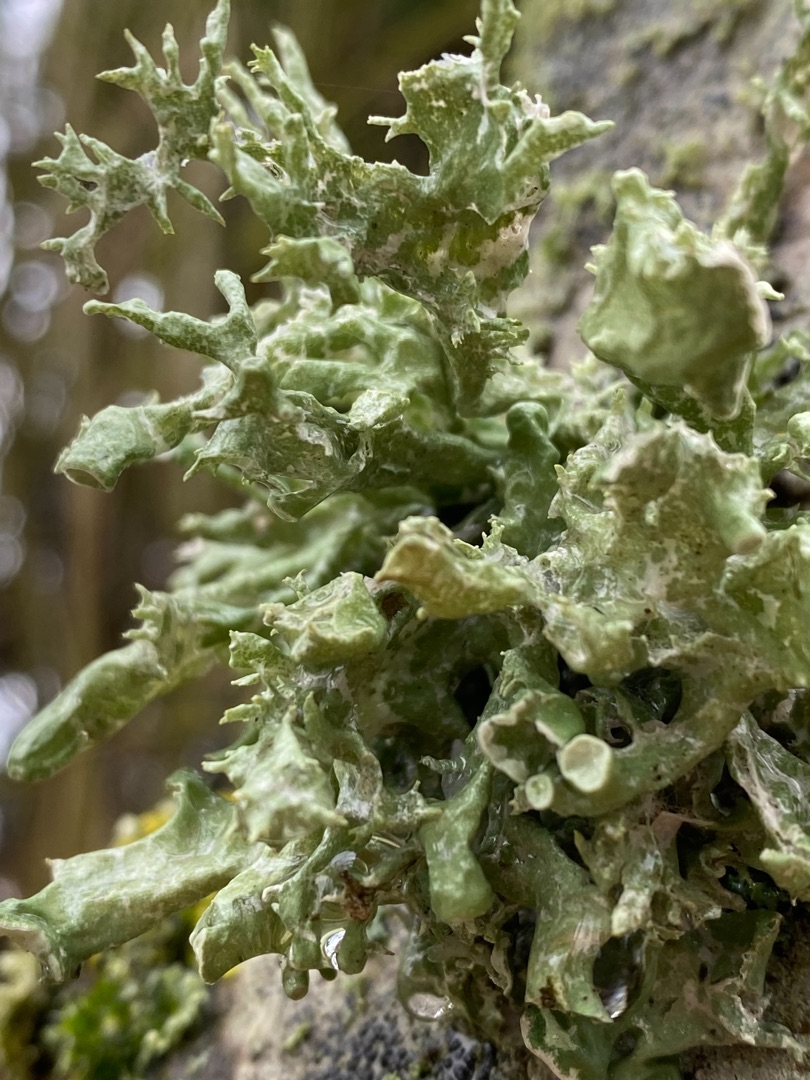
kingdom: Fungi
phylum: Ascomycota
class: Lecanoromycetes
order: Lecanorales
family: Ramalinaceae
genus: Ramalina
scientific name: Ramalina fastigiata
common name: Tue-grenlav
